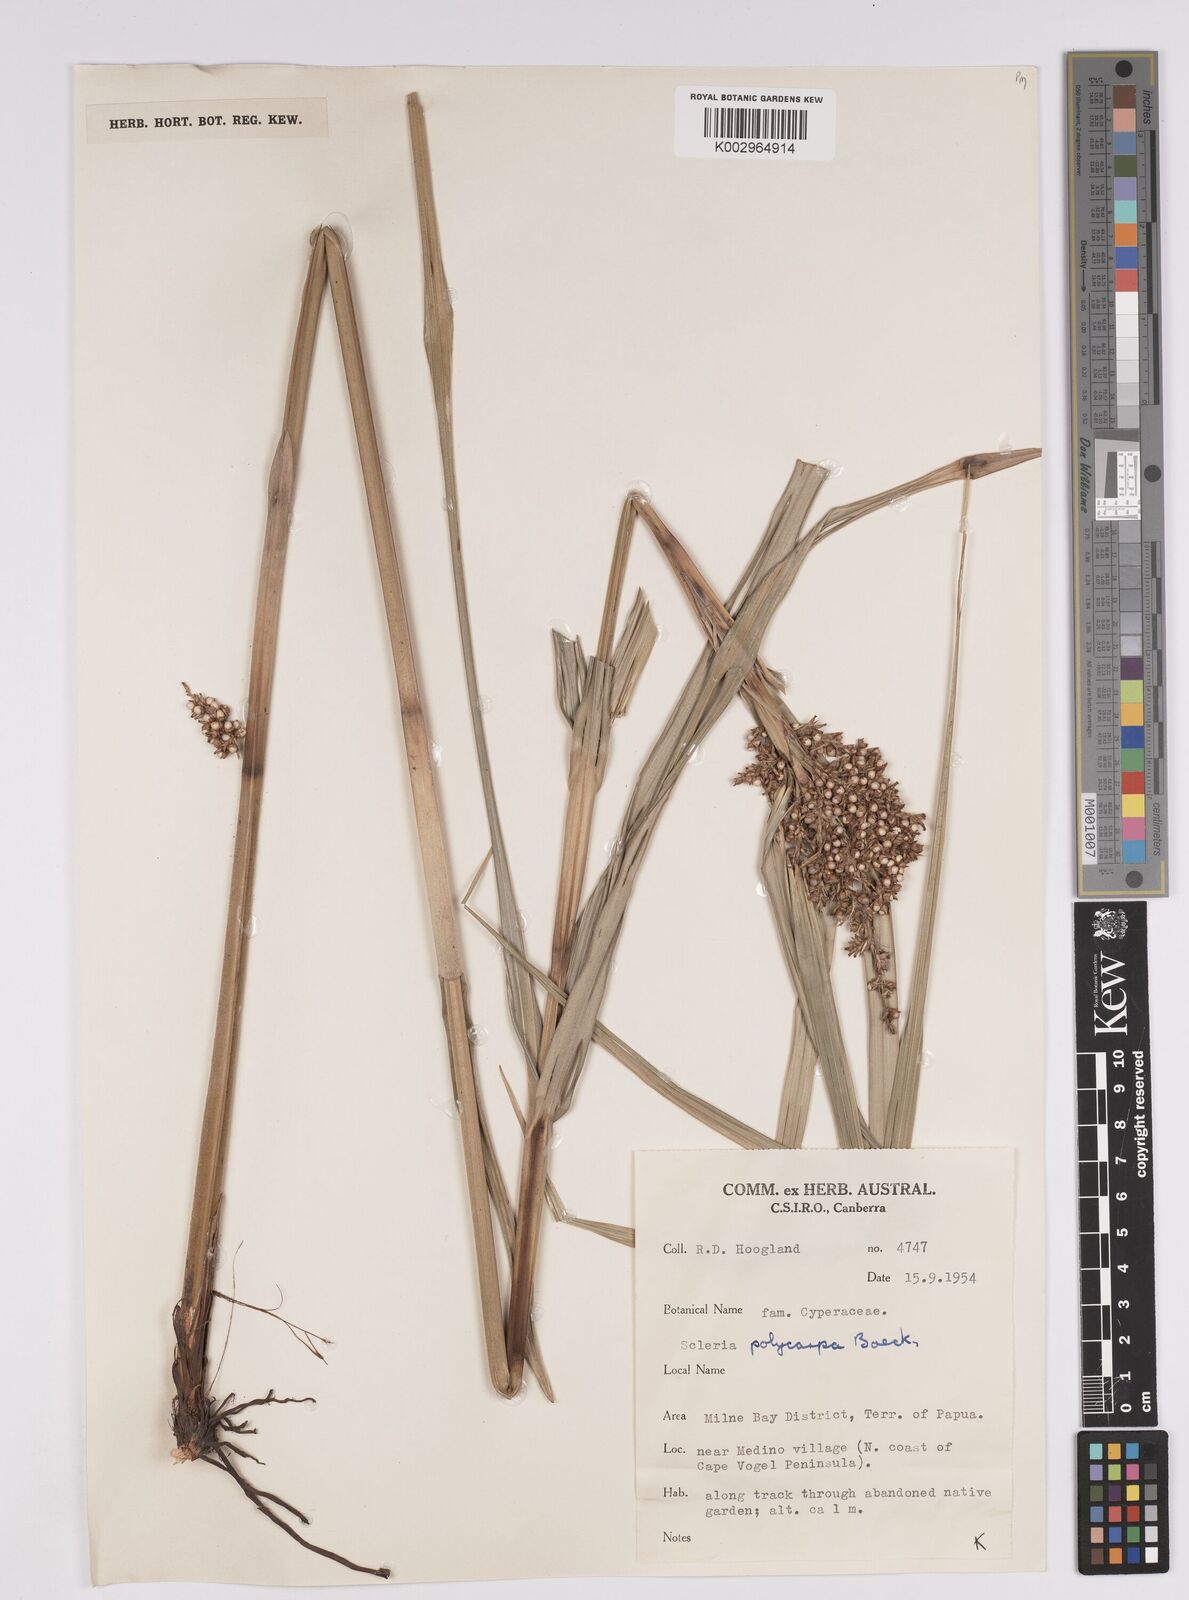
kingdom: Plantae
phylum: Tracheophyta
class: Liliopsida
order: Poales
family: Cyperaceae
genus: Scleria
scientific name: Scleria polycarpa
